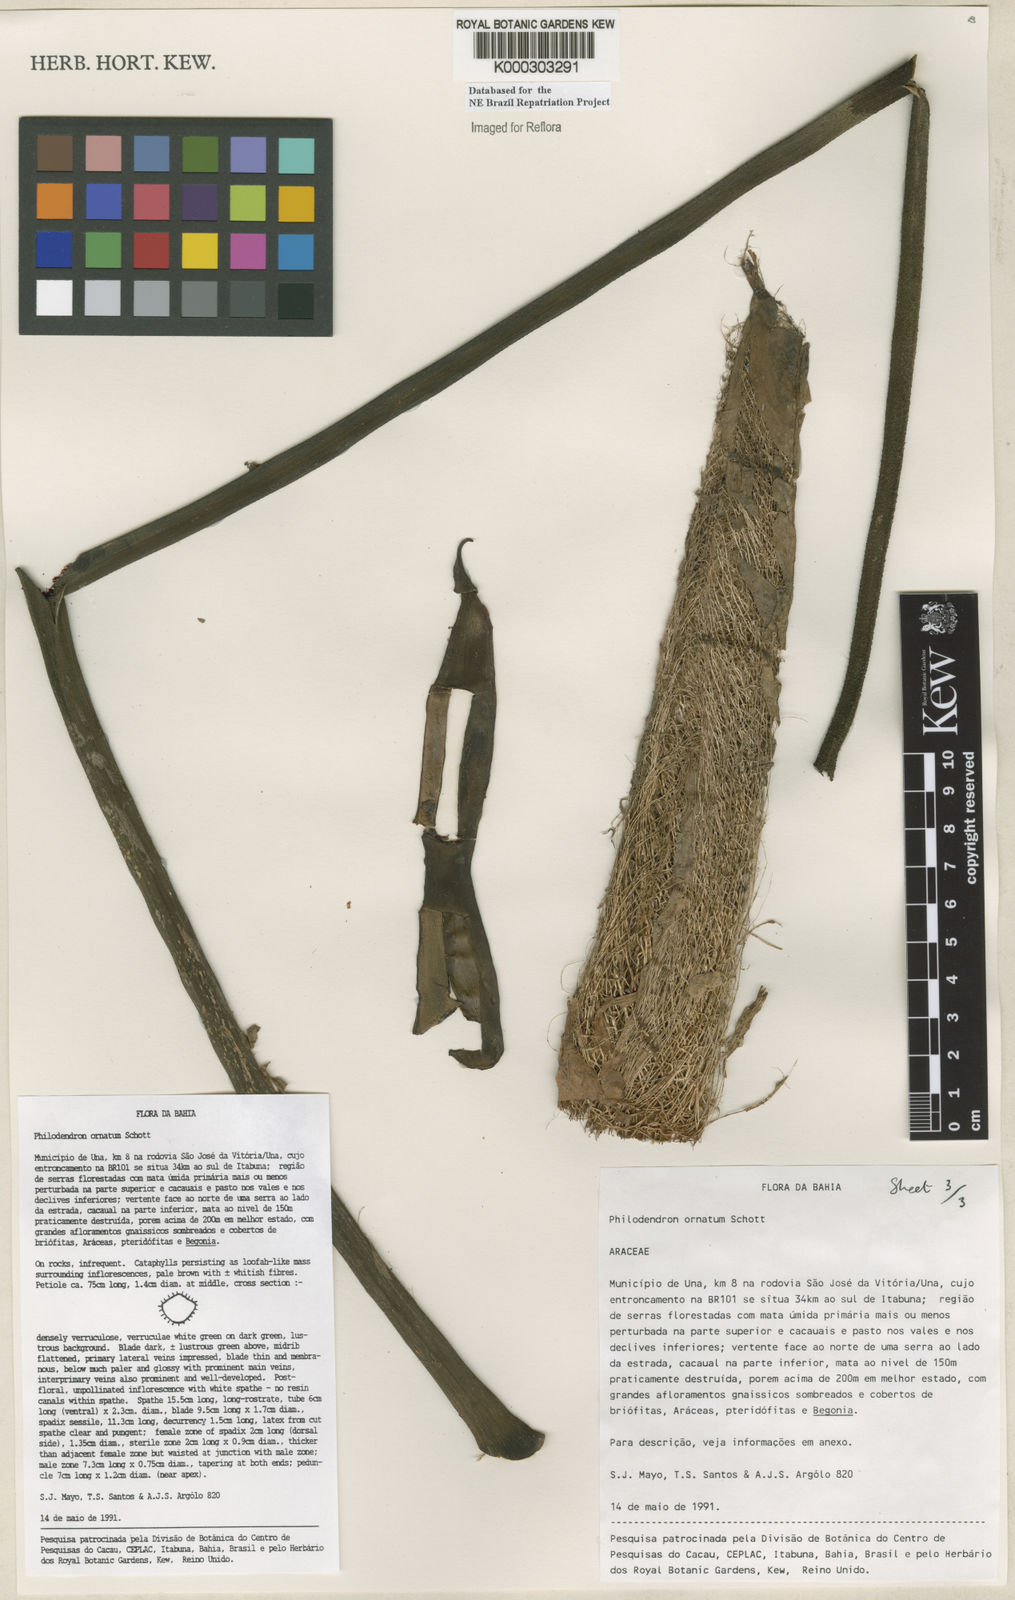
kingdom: Plantae
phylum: Tracheophyta
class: Liliopsida
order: Alismatales
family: Araceae
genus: Philodendron
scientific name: Philodendron ornatum
